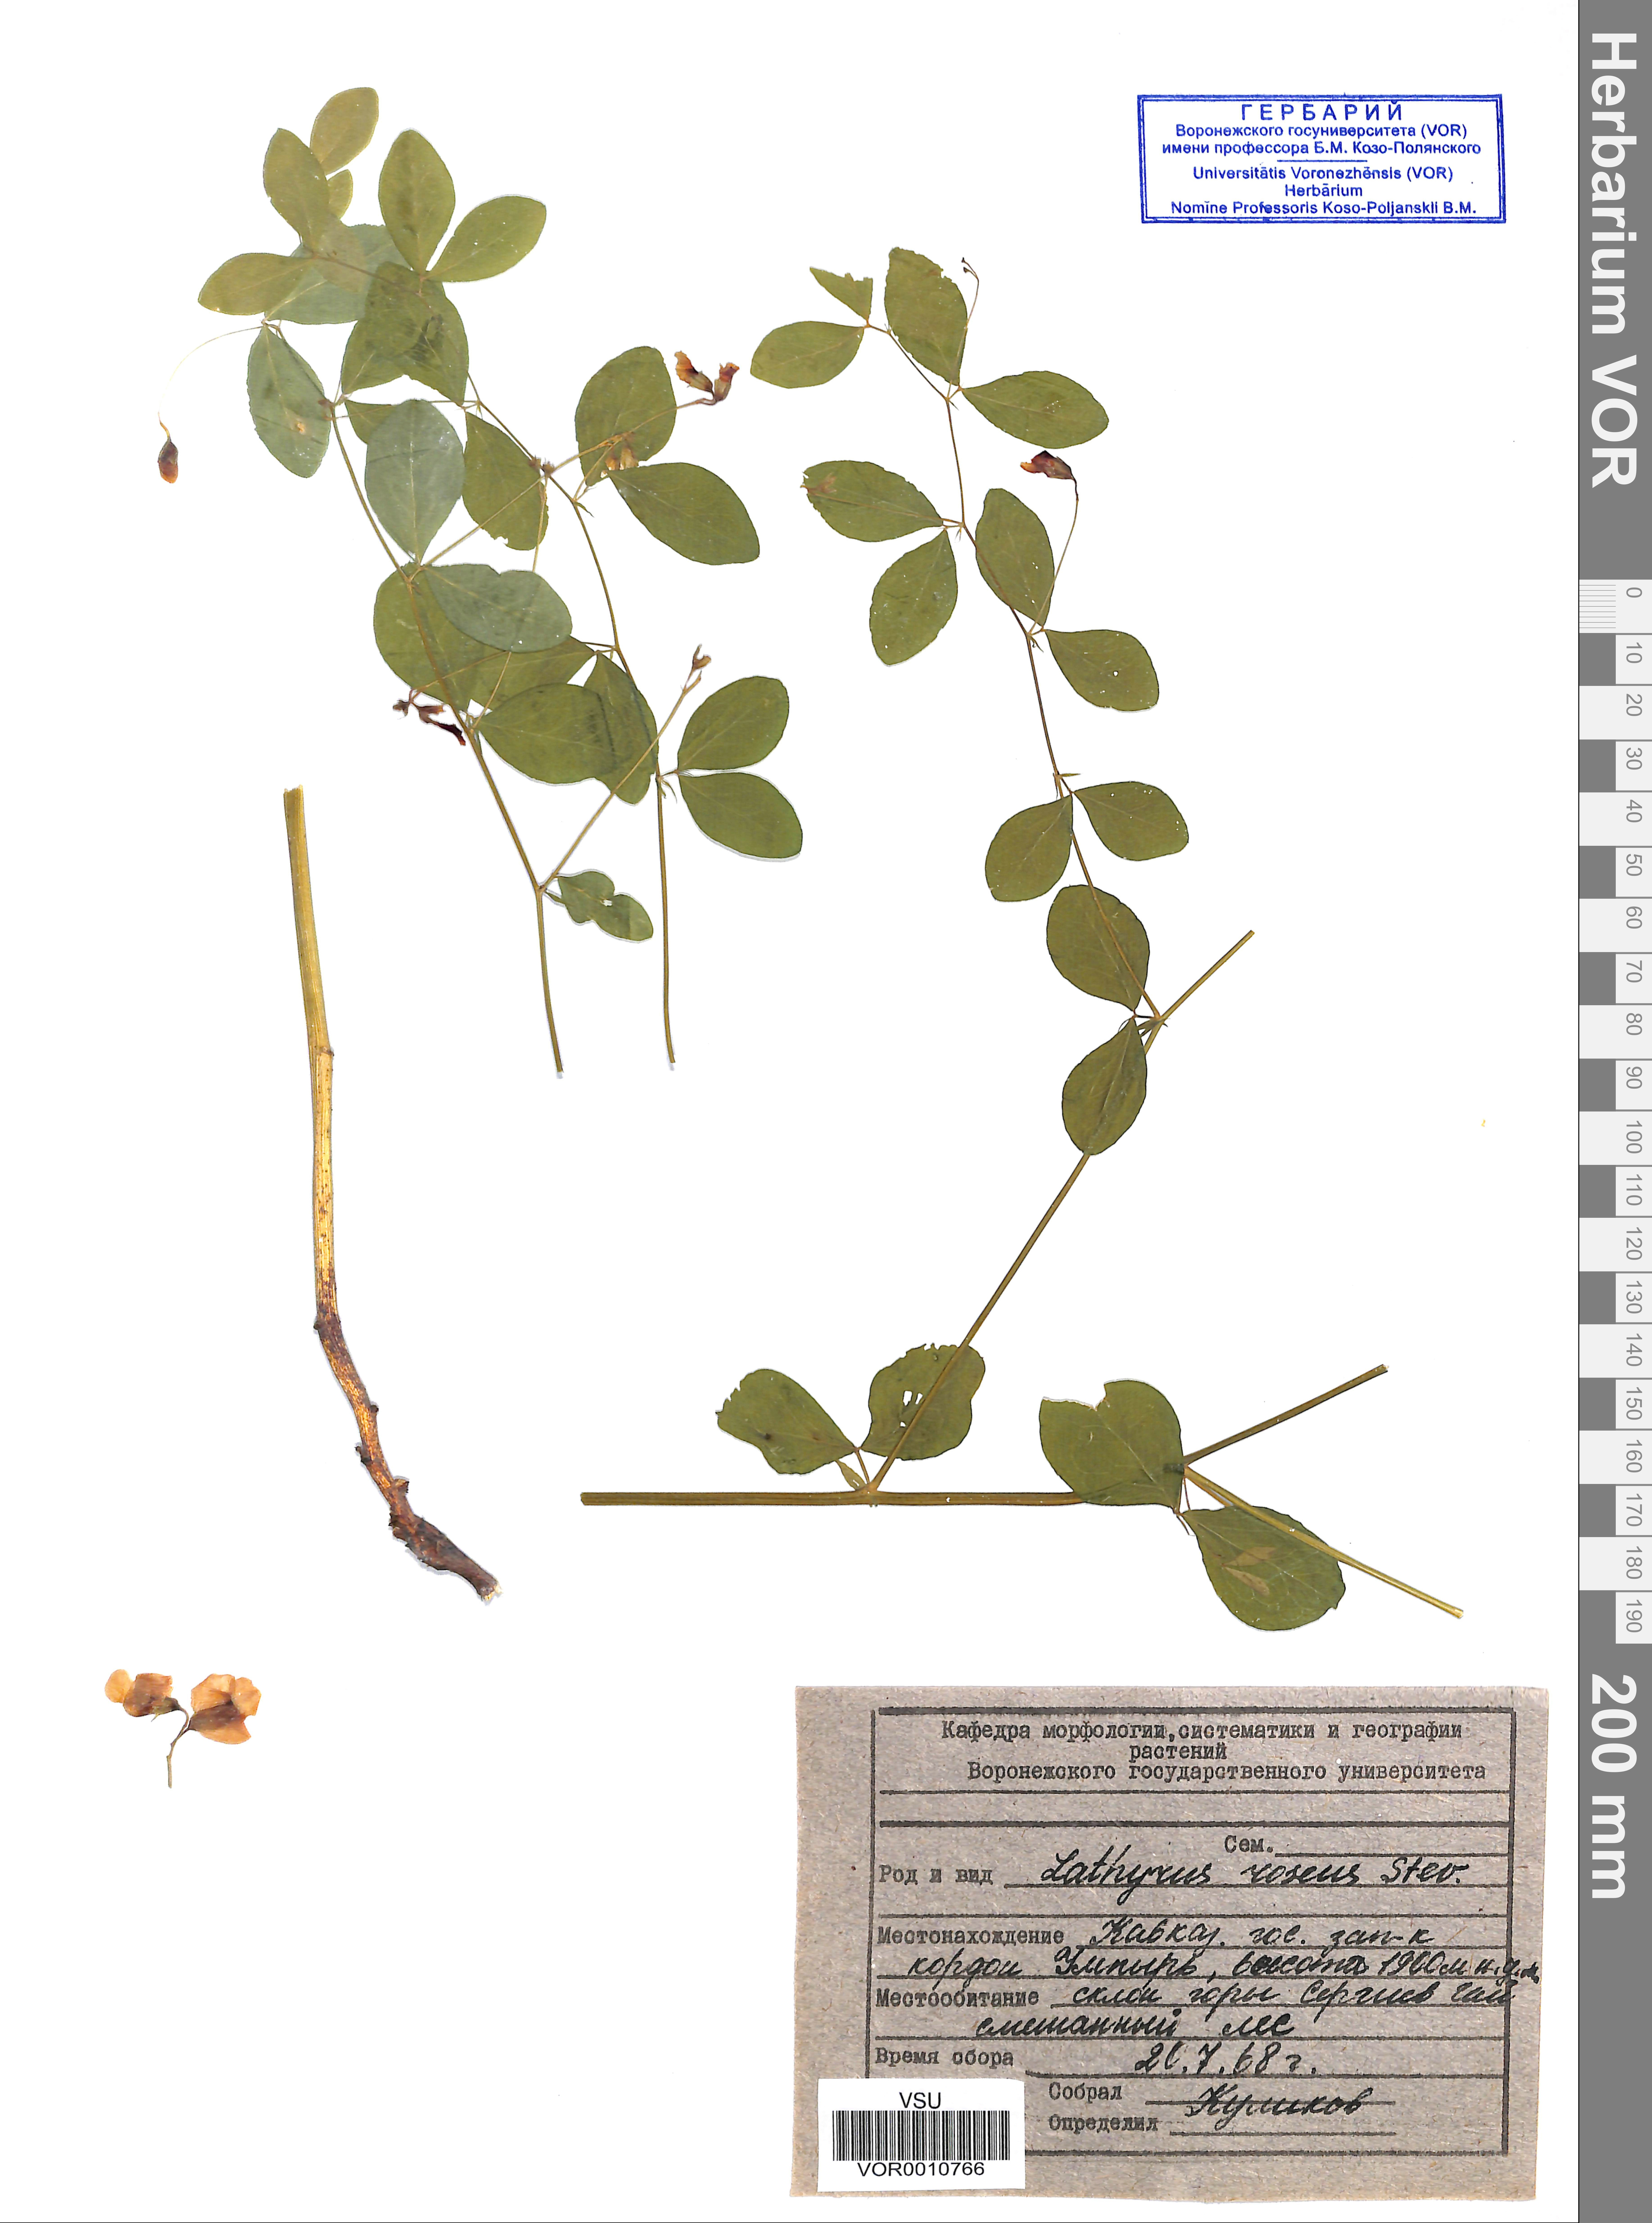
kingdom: Plantae
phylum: Tracheophyta
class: Magnoliopsida
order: Fabales
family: Fabaceae
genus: Lathyrus
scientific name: Lathyrus roseus
